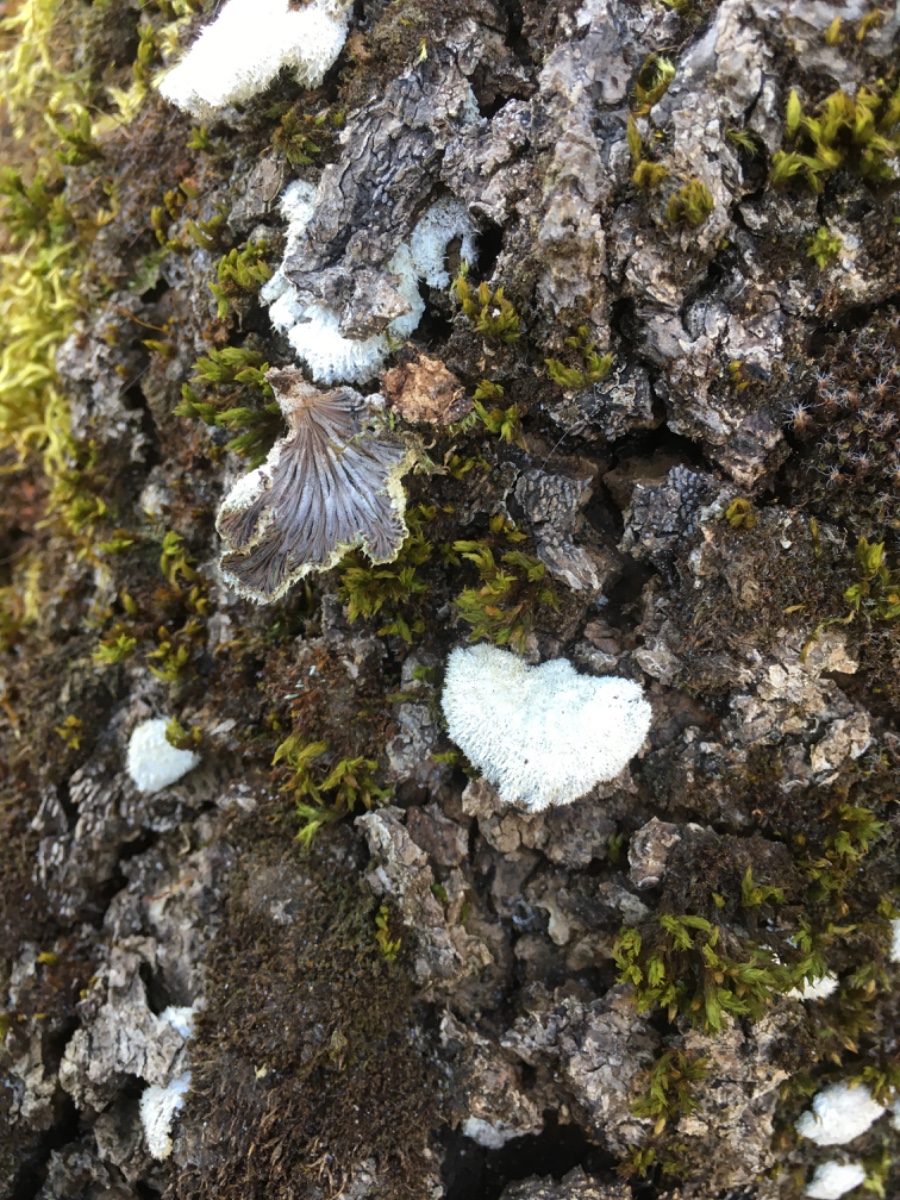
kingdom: Fungi
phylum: Basidiomycota
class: Agaricomycetes
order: Agaricales
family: Schizophyllaceae
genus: Schizophyllum
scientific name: Schizophyllum commune
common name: kløvblad
